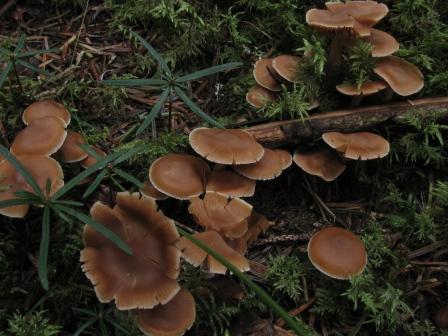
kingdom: Fungi
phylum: Basidiomycota
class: Agaricomycetes
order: Agaricales
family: Cortinariaceae
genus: Cortinarius
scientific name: Cortinarius
